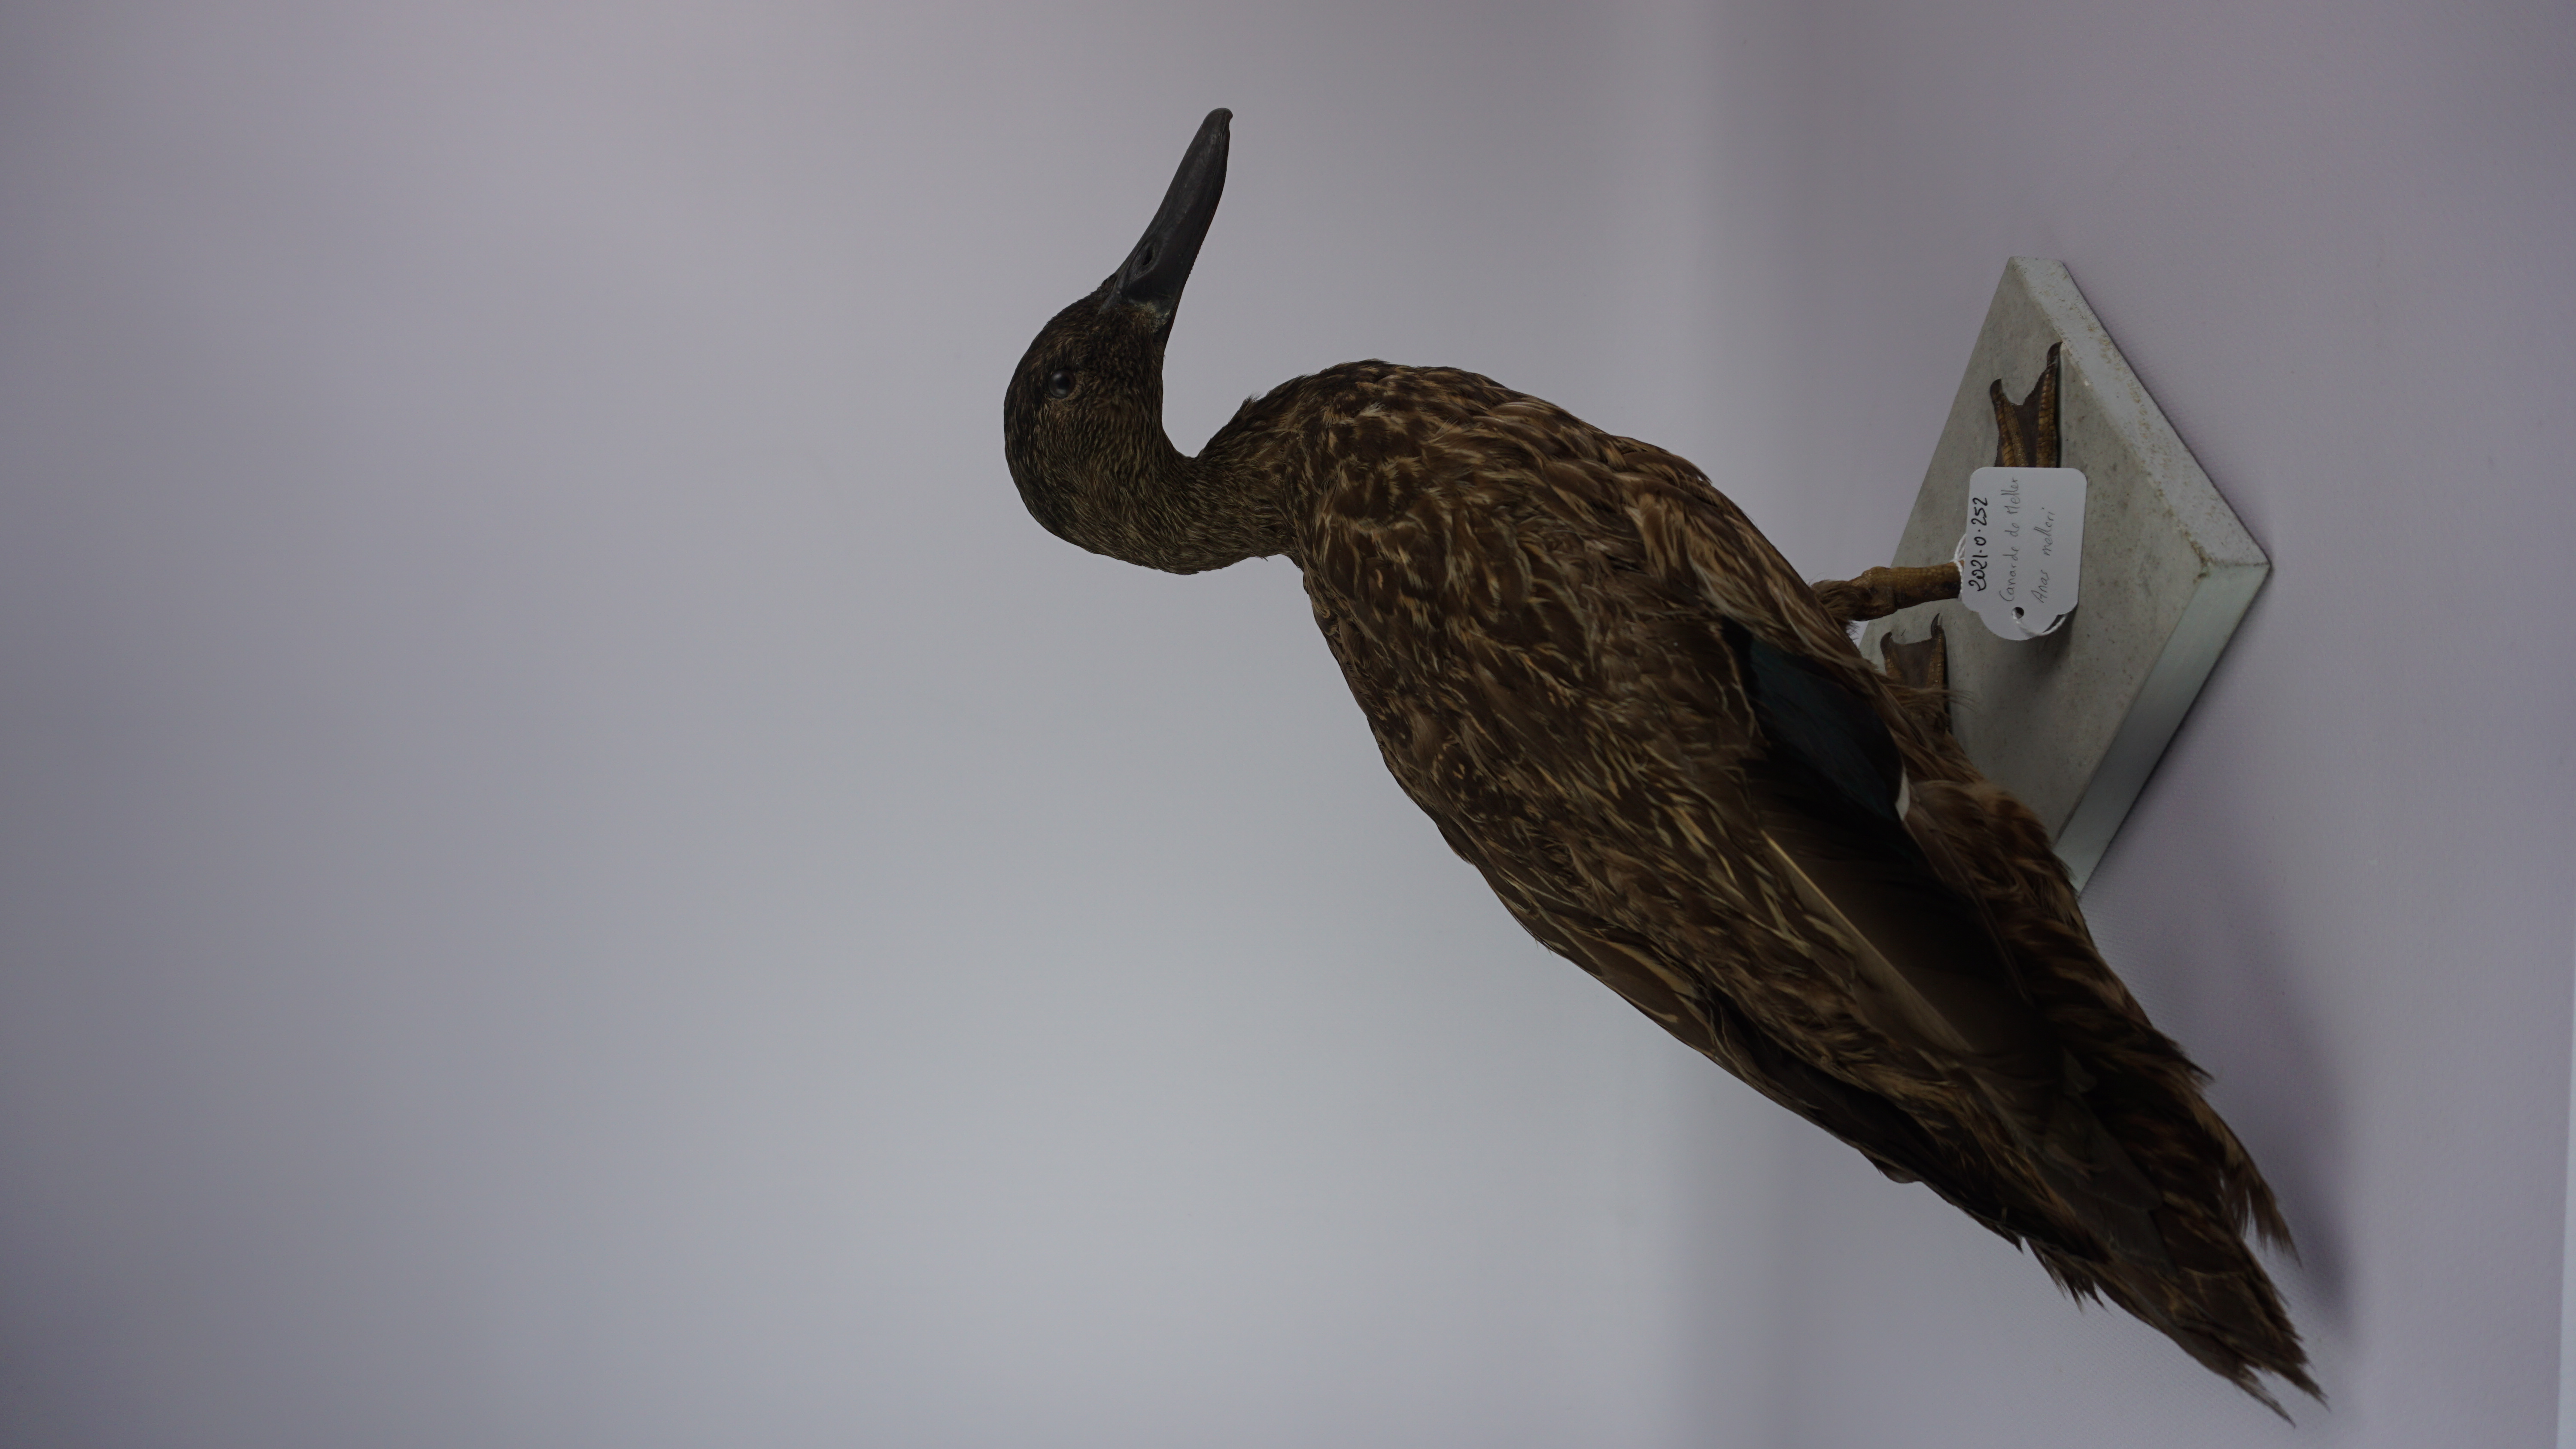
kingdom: Animalia
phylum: Chordata
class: Aves
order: Anseriformes
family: Anatidae
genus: Anas
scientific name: Anas melleri
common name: Meller's duck
